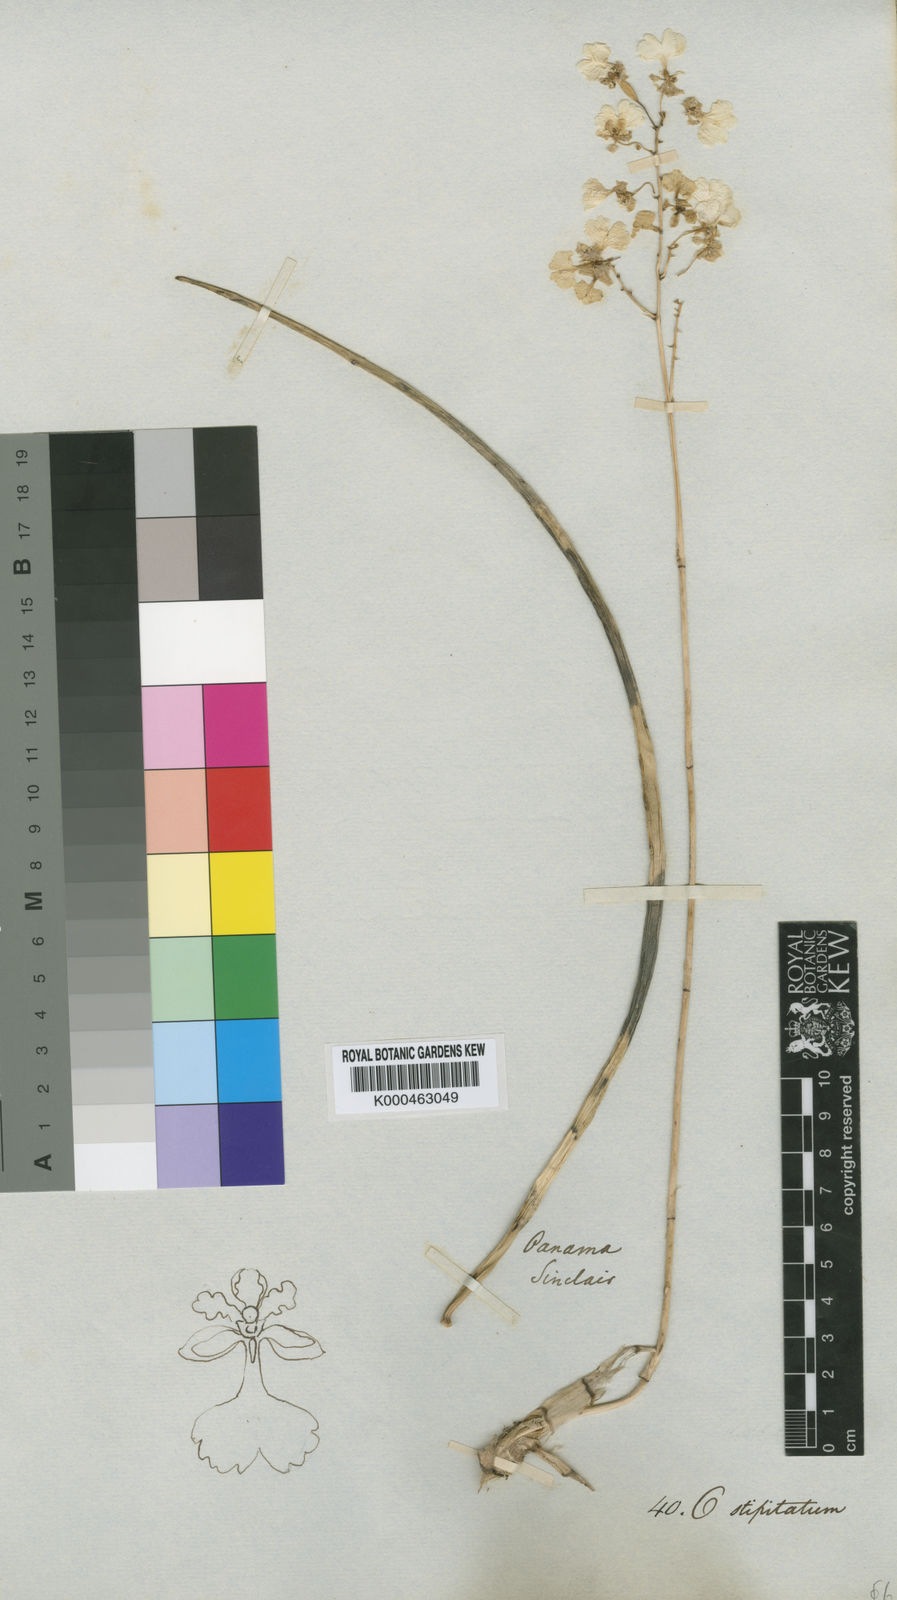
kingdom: Plantae
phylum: Tracheophyta
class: Liliopsida
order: Asparagales
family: Orchidaceae
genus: Trichocentrum
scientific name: Trichocentrum lacerum
